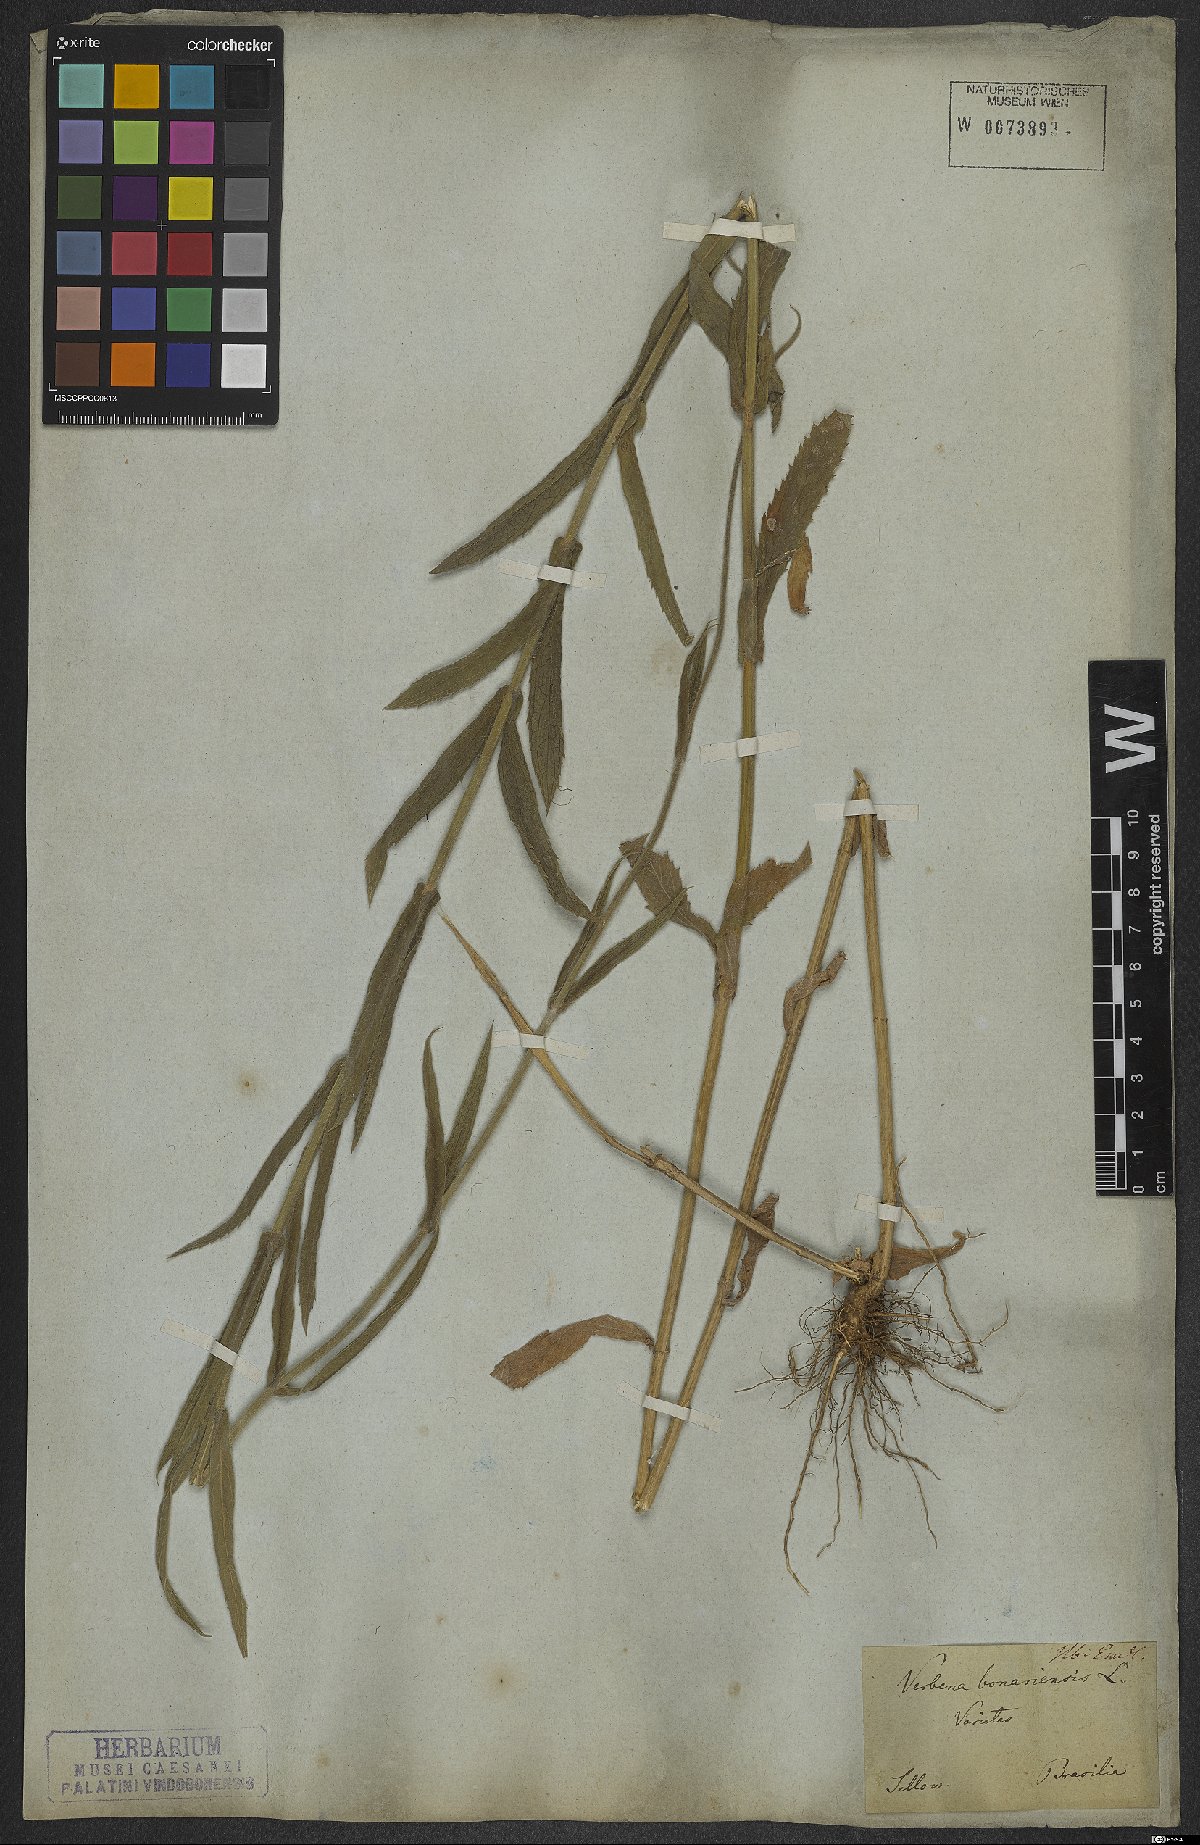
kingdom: Plantae
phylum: Tracheophyta
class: Magnoliopsida
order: Lamiales
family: Verbenaceae
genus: Verbena
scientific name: Verbena bonariensis
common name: Purpletop vervain
